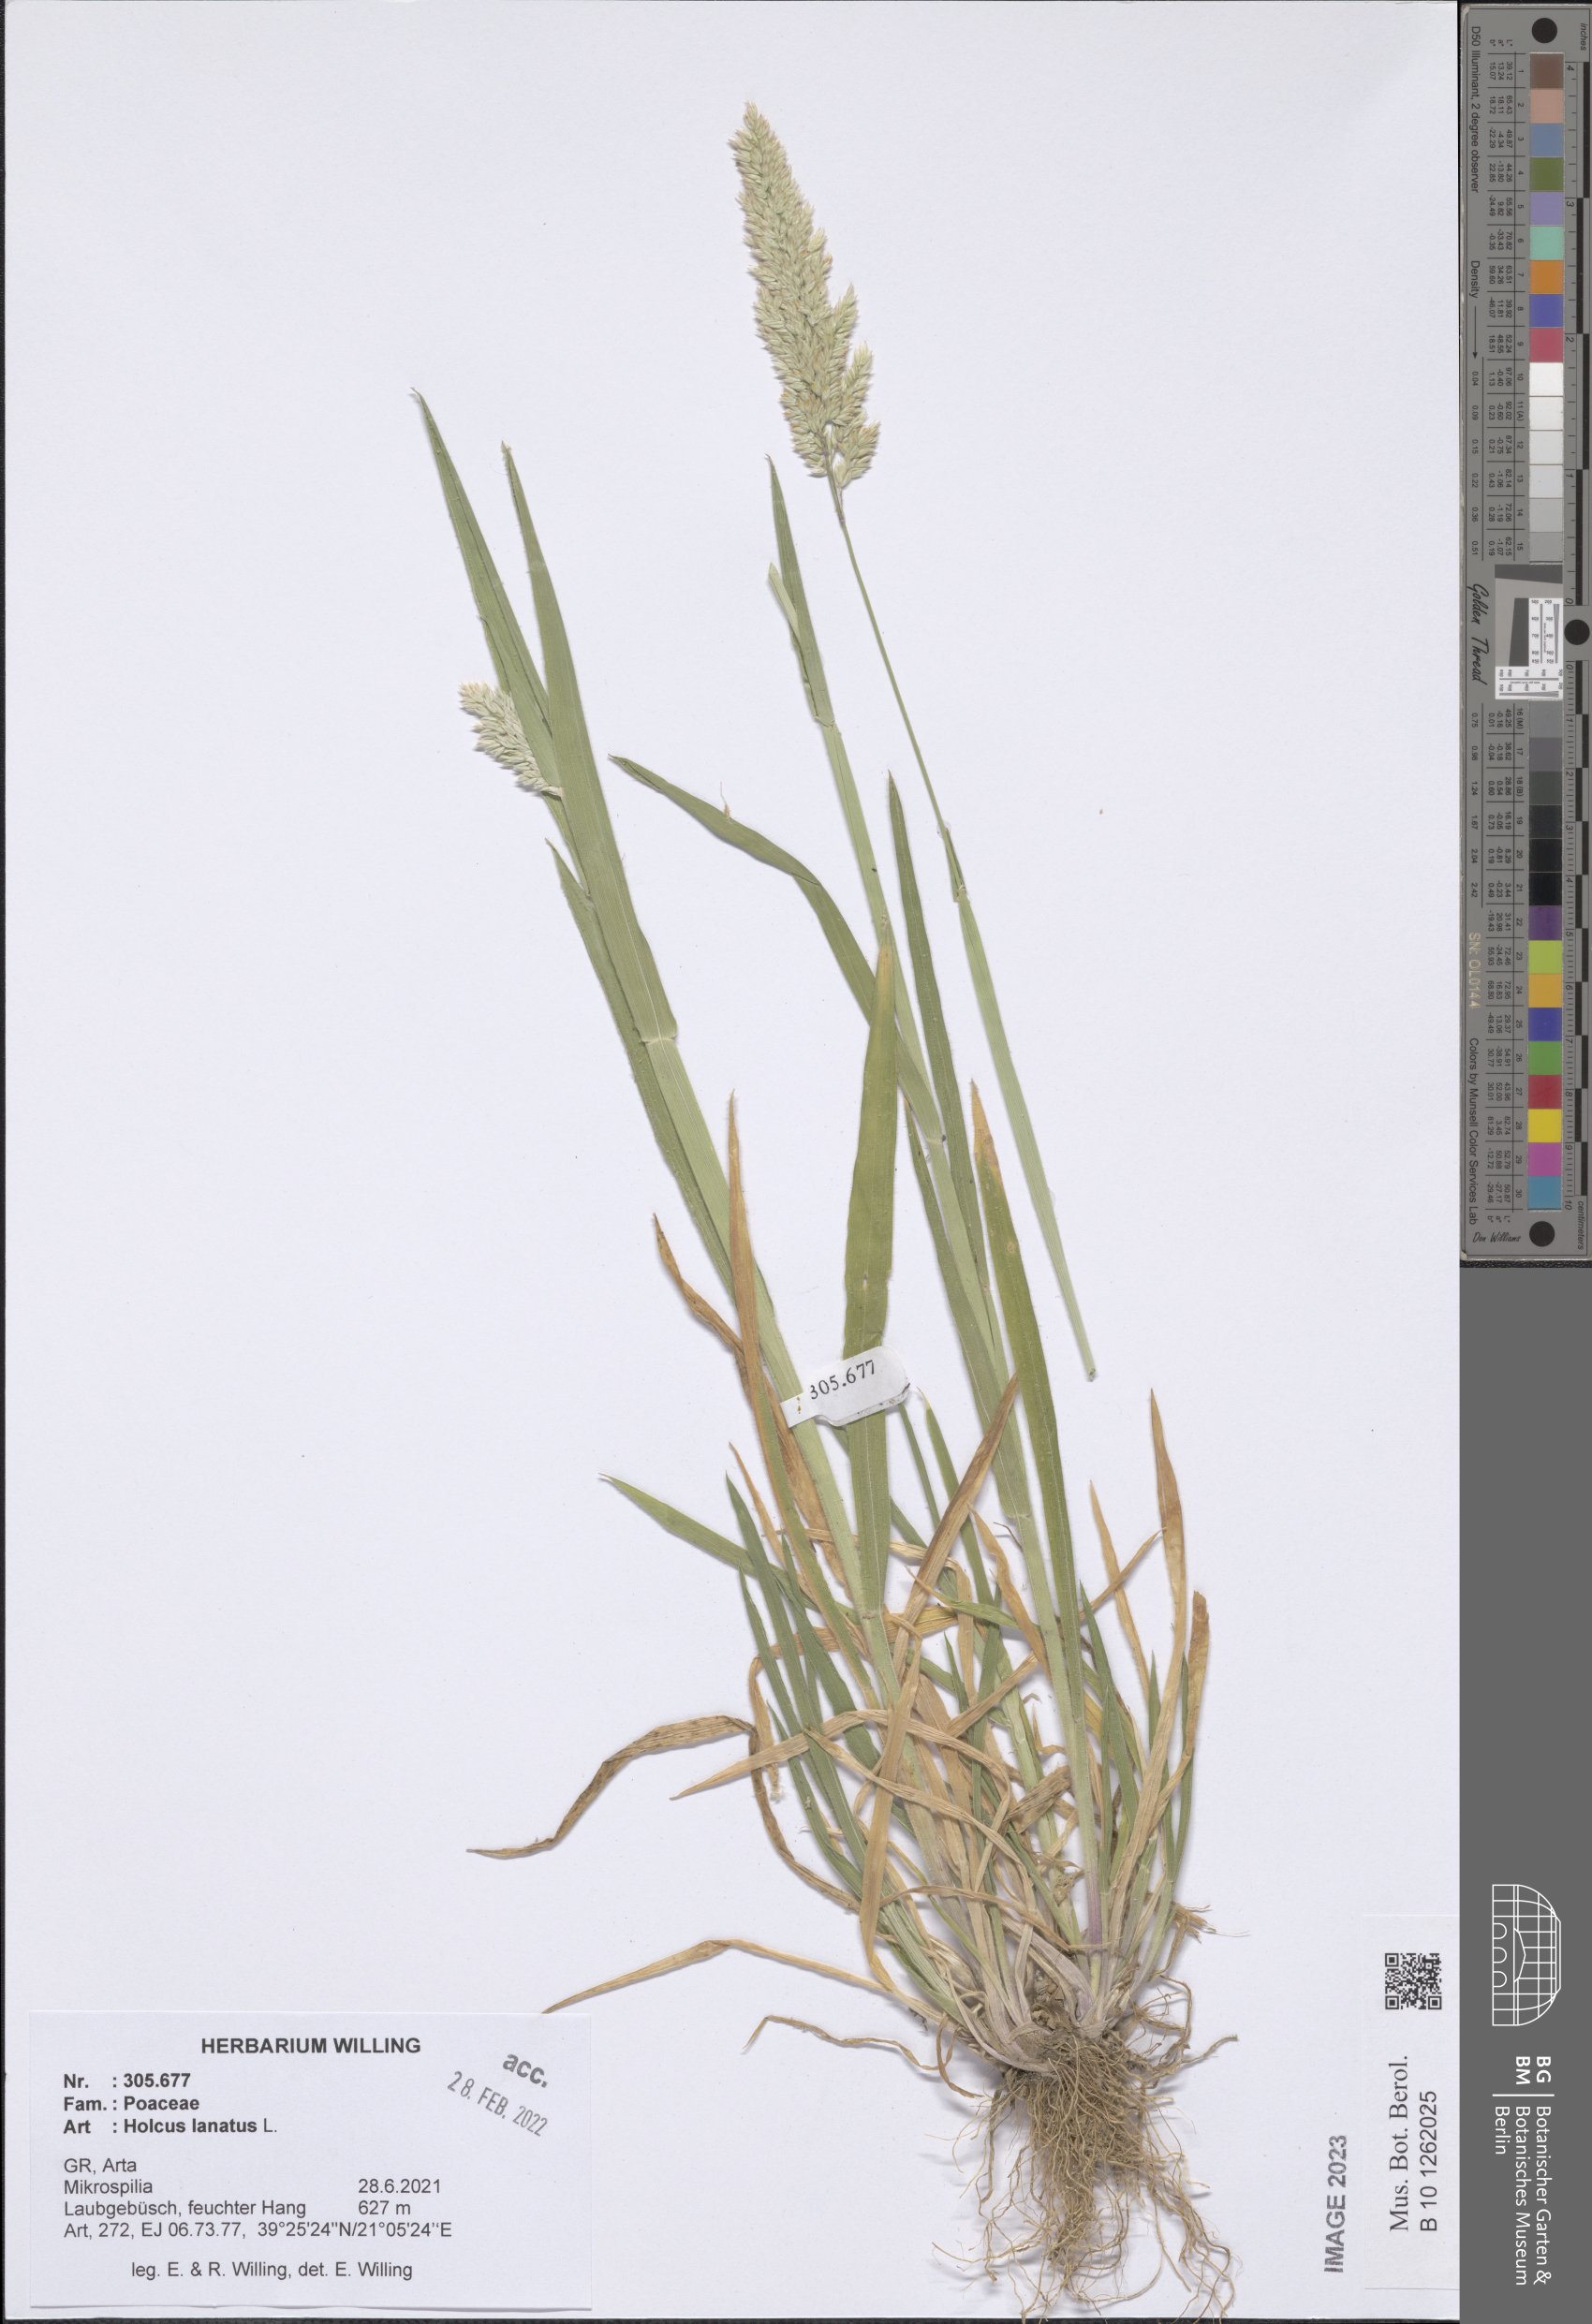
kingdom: Plantae
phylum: Tracheophyta
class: Liliopsida
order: Poales
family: Poaceae
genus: Holcus
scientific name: Holcus lanatus
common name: Yorkshire-fog
